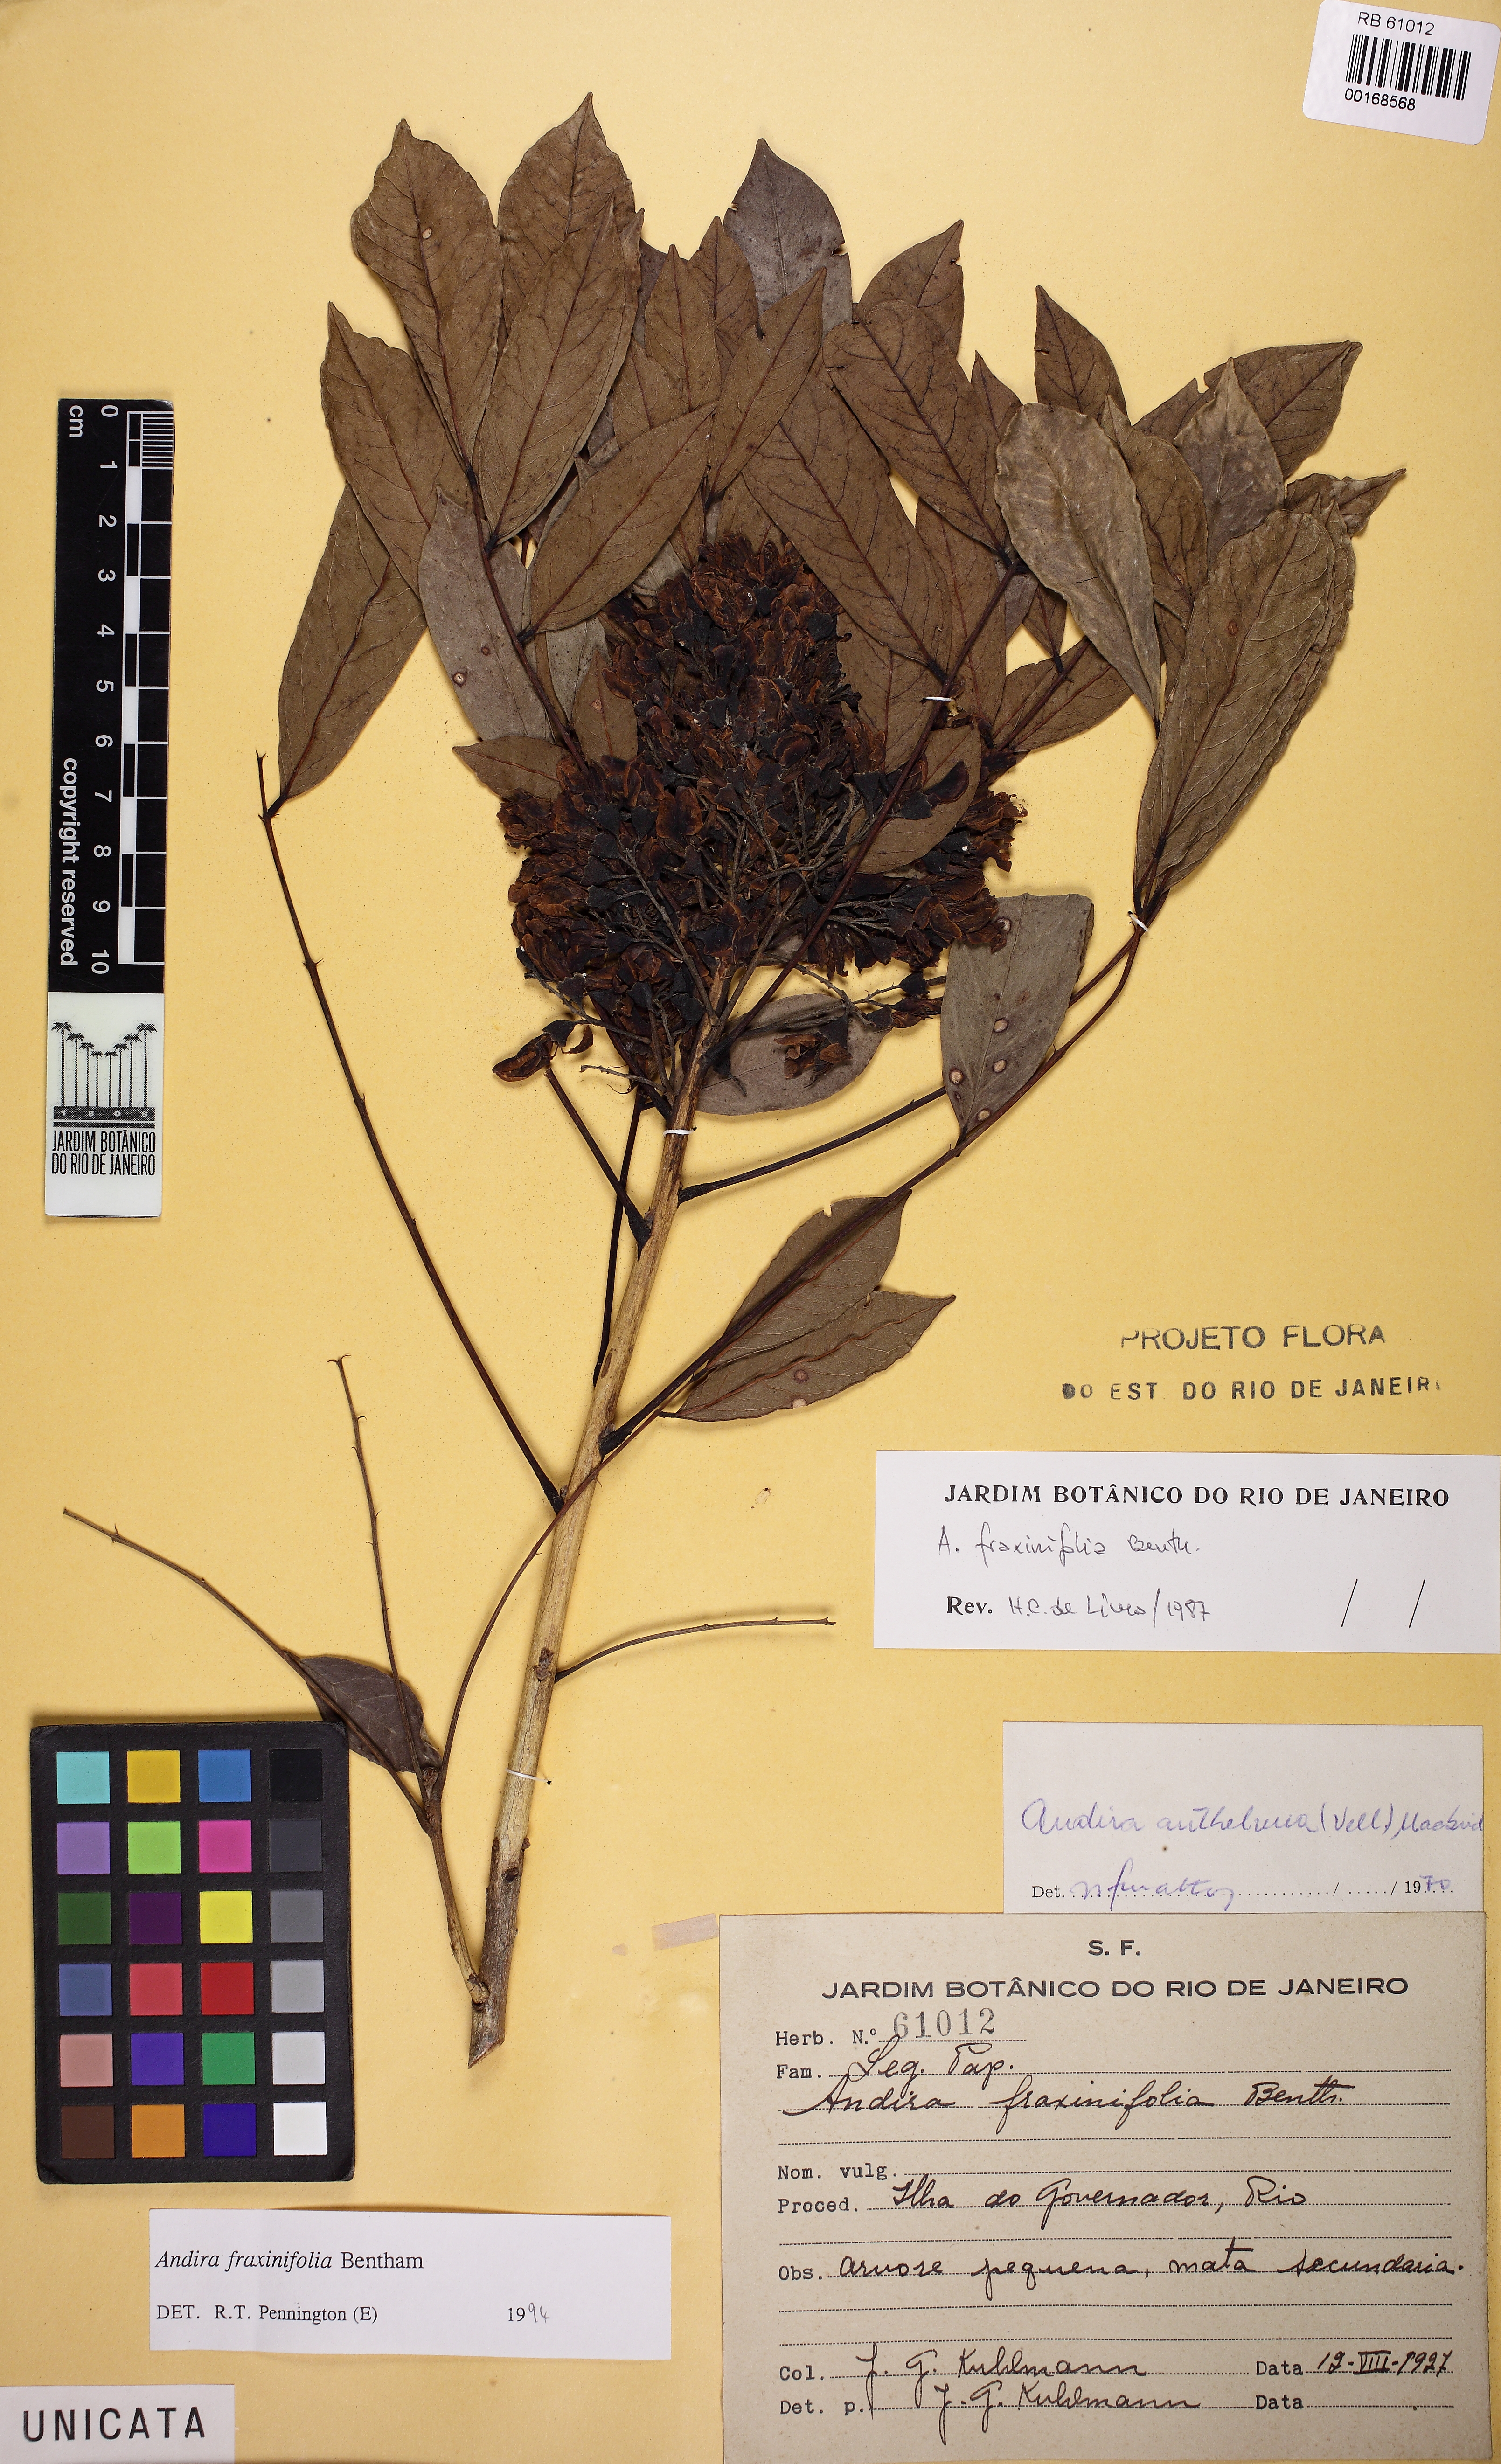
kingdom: Plantae
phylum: Tracheophyta
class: Magnoliopsida
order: Fabales
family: Fabaceae
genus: Andira
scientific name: Andira fraxinifolia
